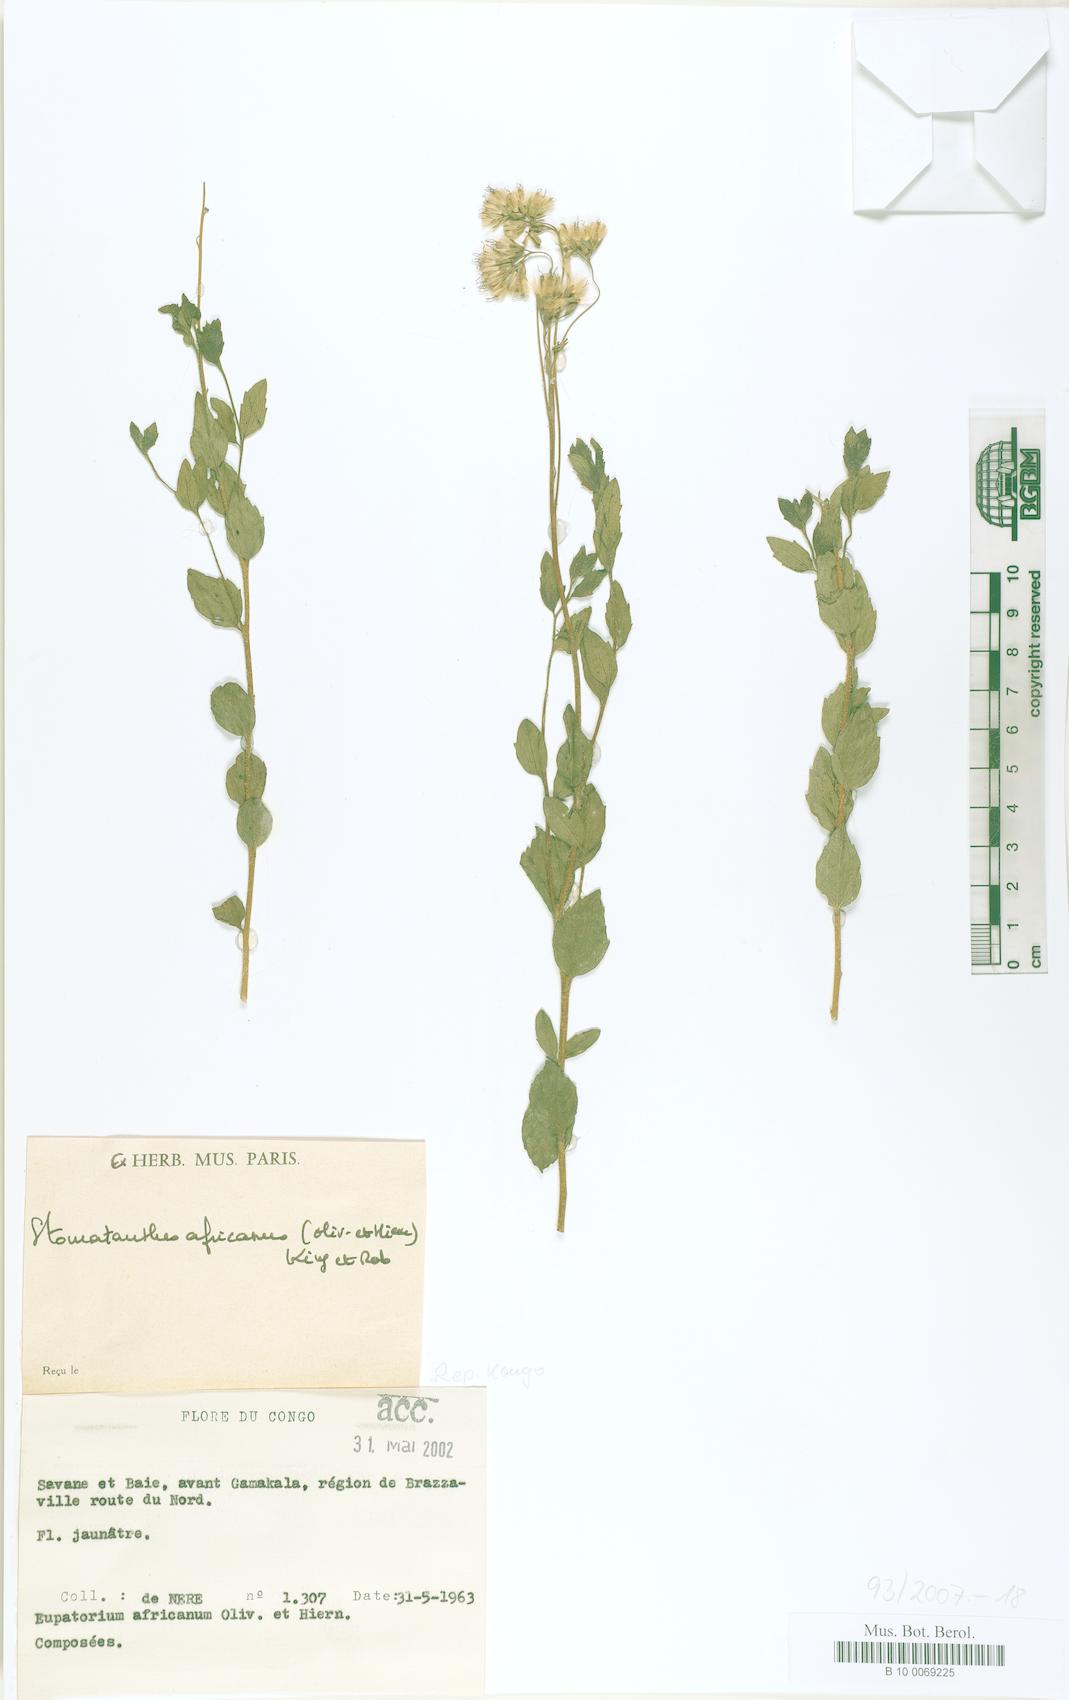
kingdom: Plantae
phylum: Tracheophyta
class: Magnoliopsida
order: Asterales
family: Asteraceae
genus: Stomatanthes
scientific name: Stomatanthes africanus
